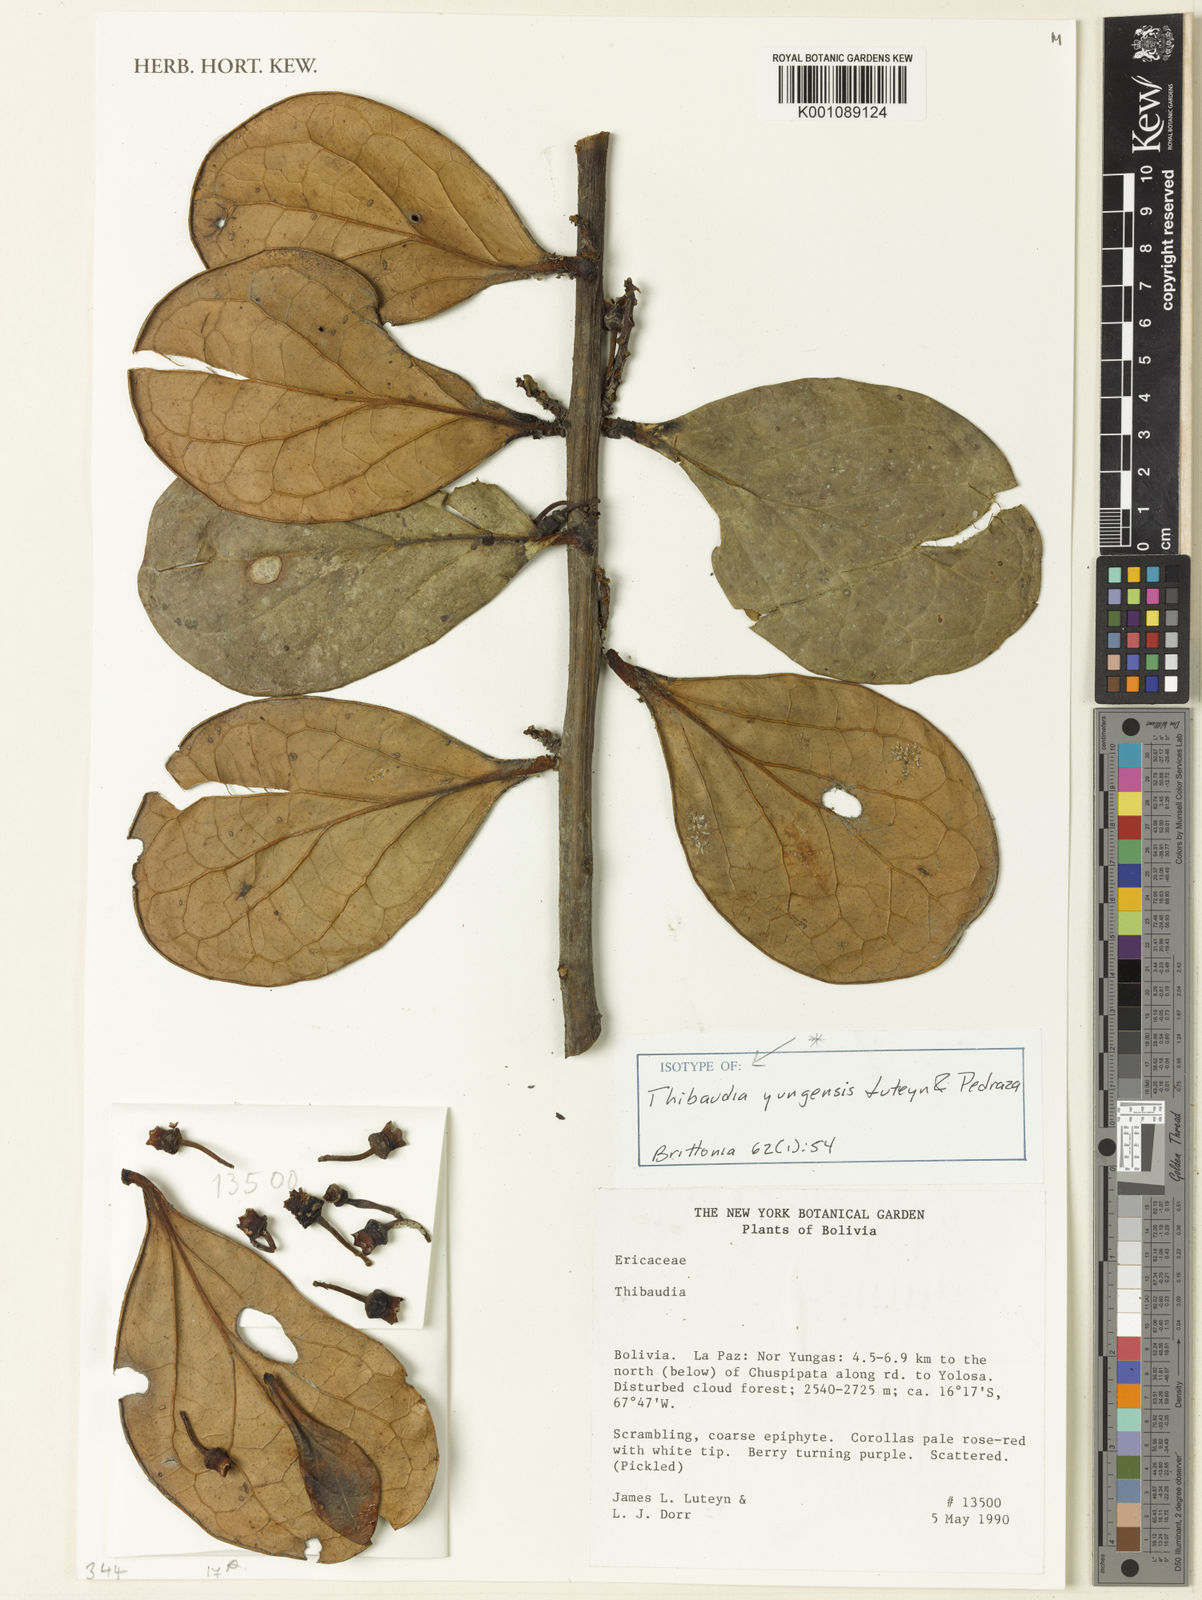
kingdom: Plantae
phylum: Tracheophyta
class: Magnoliopsida
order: Ericales
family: Ericaceae
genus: Thibaudia
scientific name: Thibaudia yungensis
